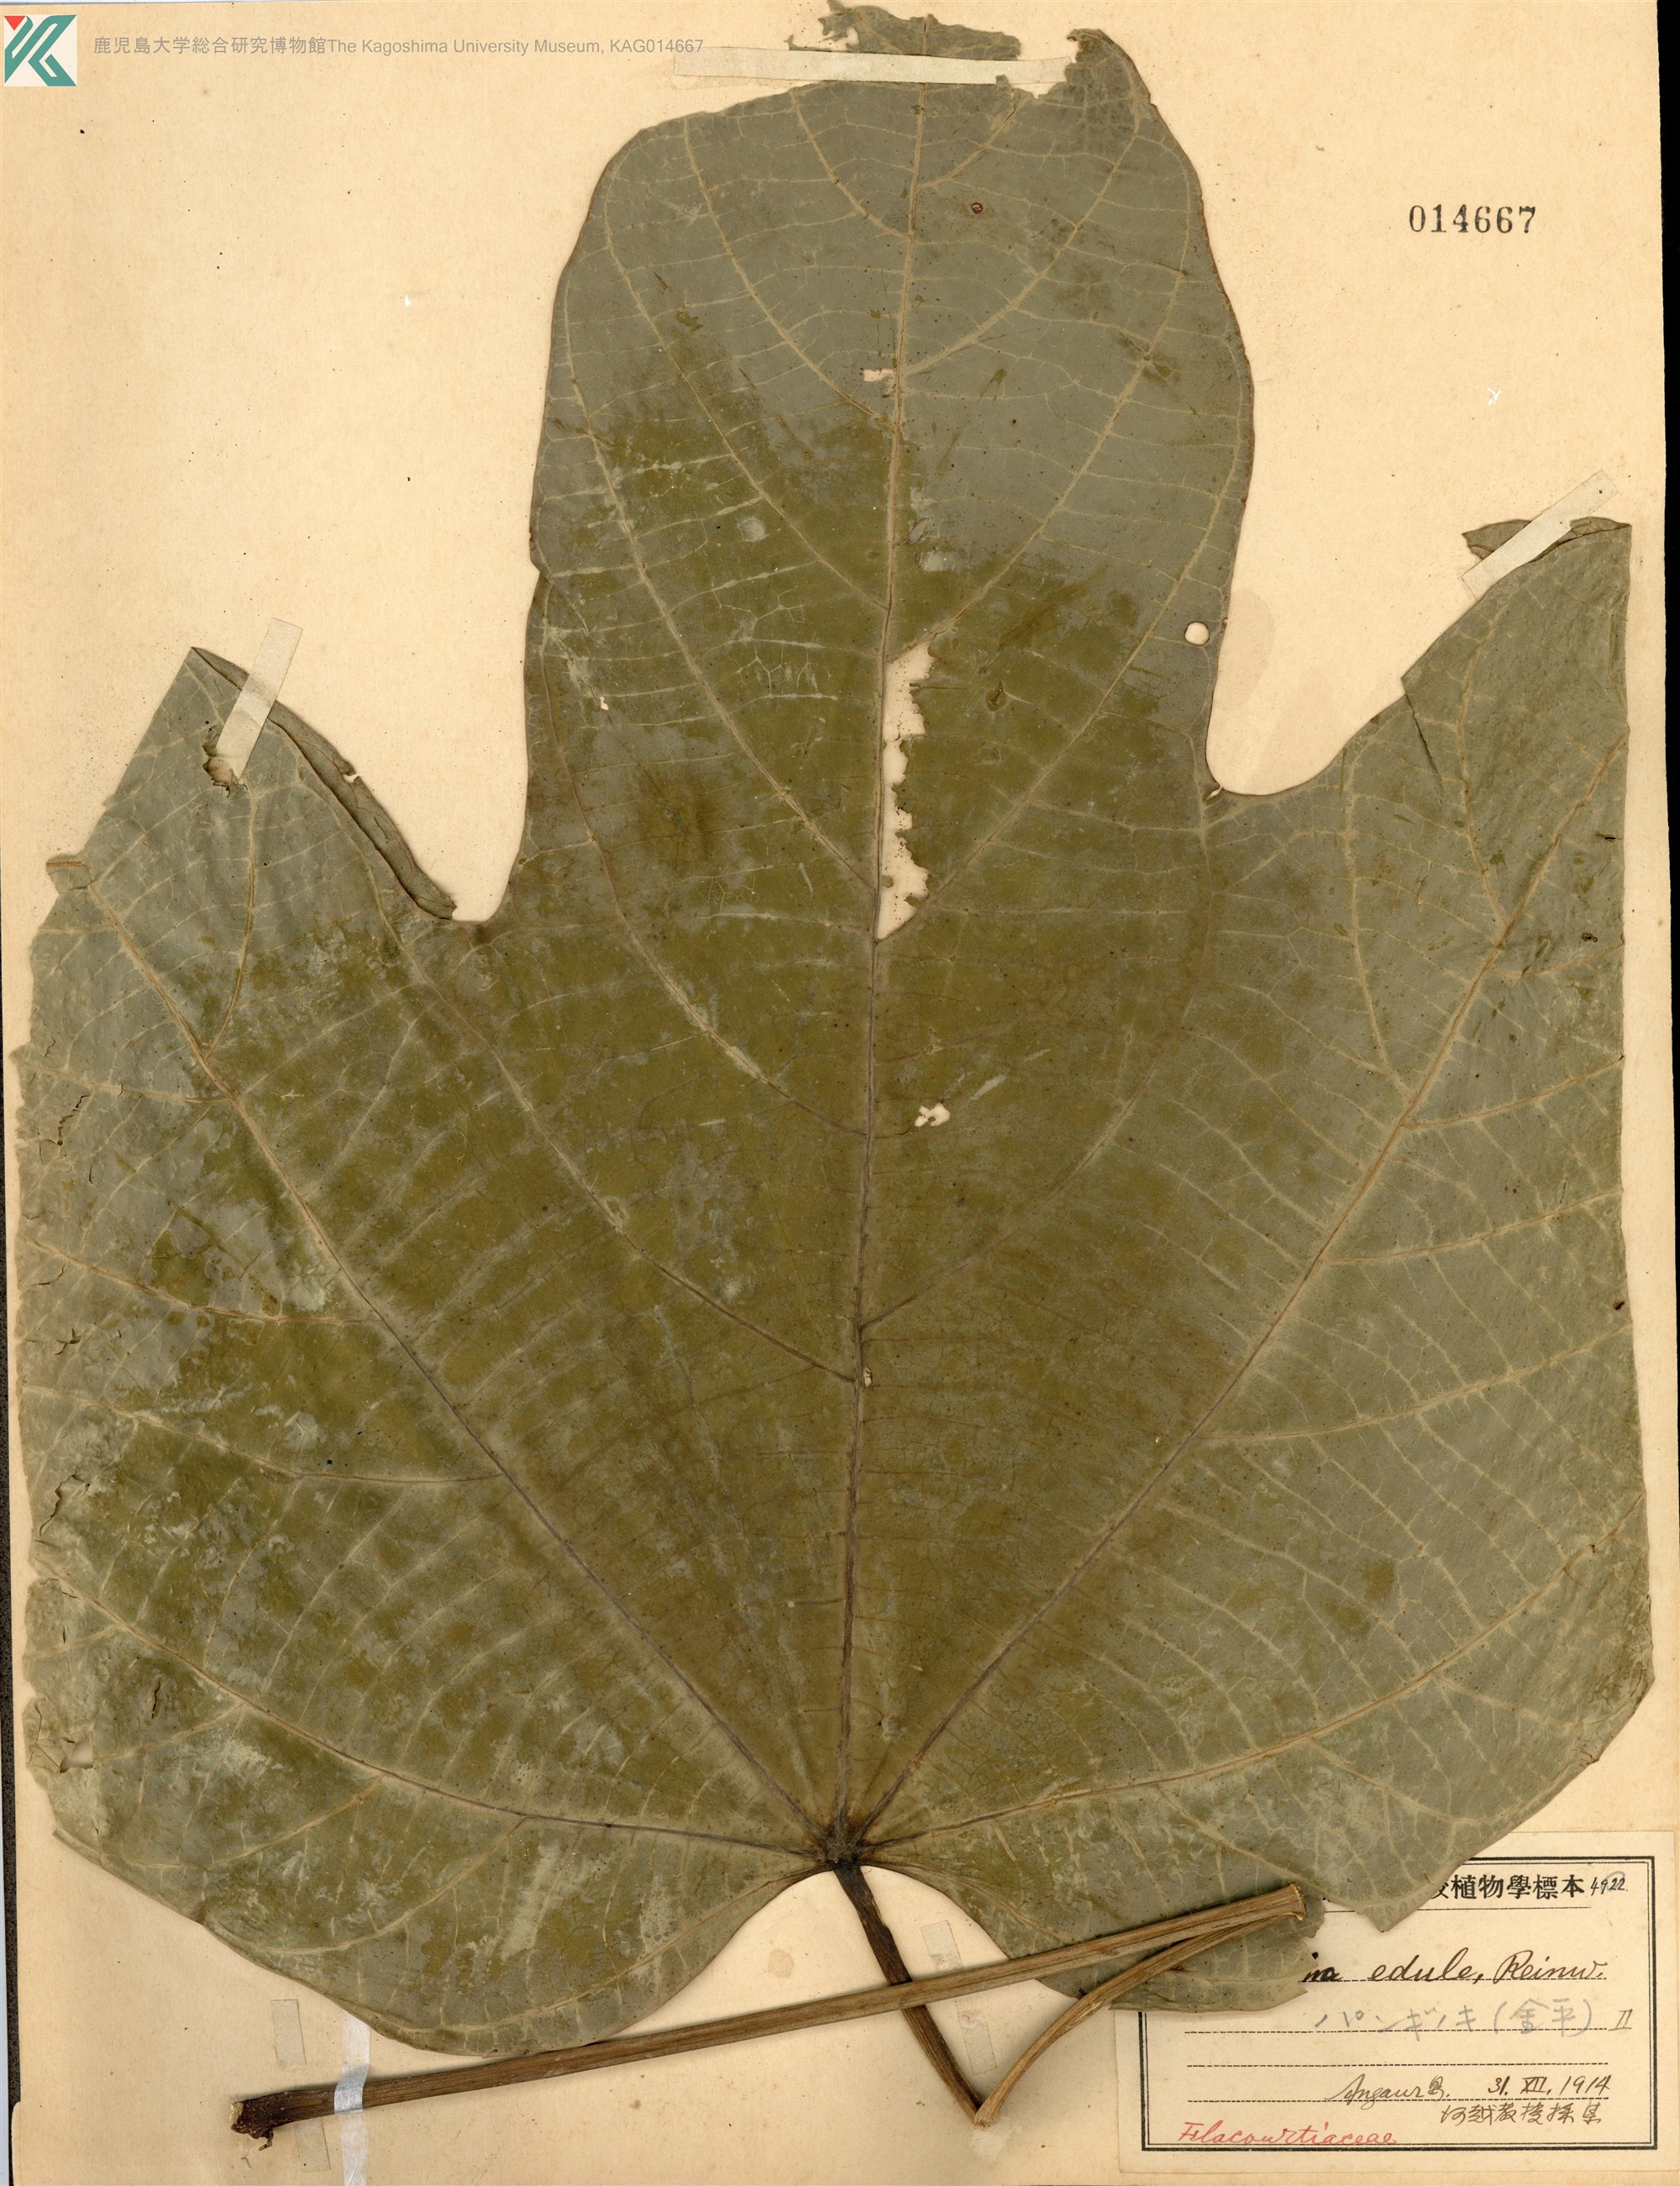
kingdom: Plantae
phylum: Tracheophyta
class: Magnoliopsida
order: Malpighiales
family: Achariaceae
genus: Pangium
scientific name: Pangium edule
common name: Football fruit
